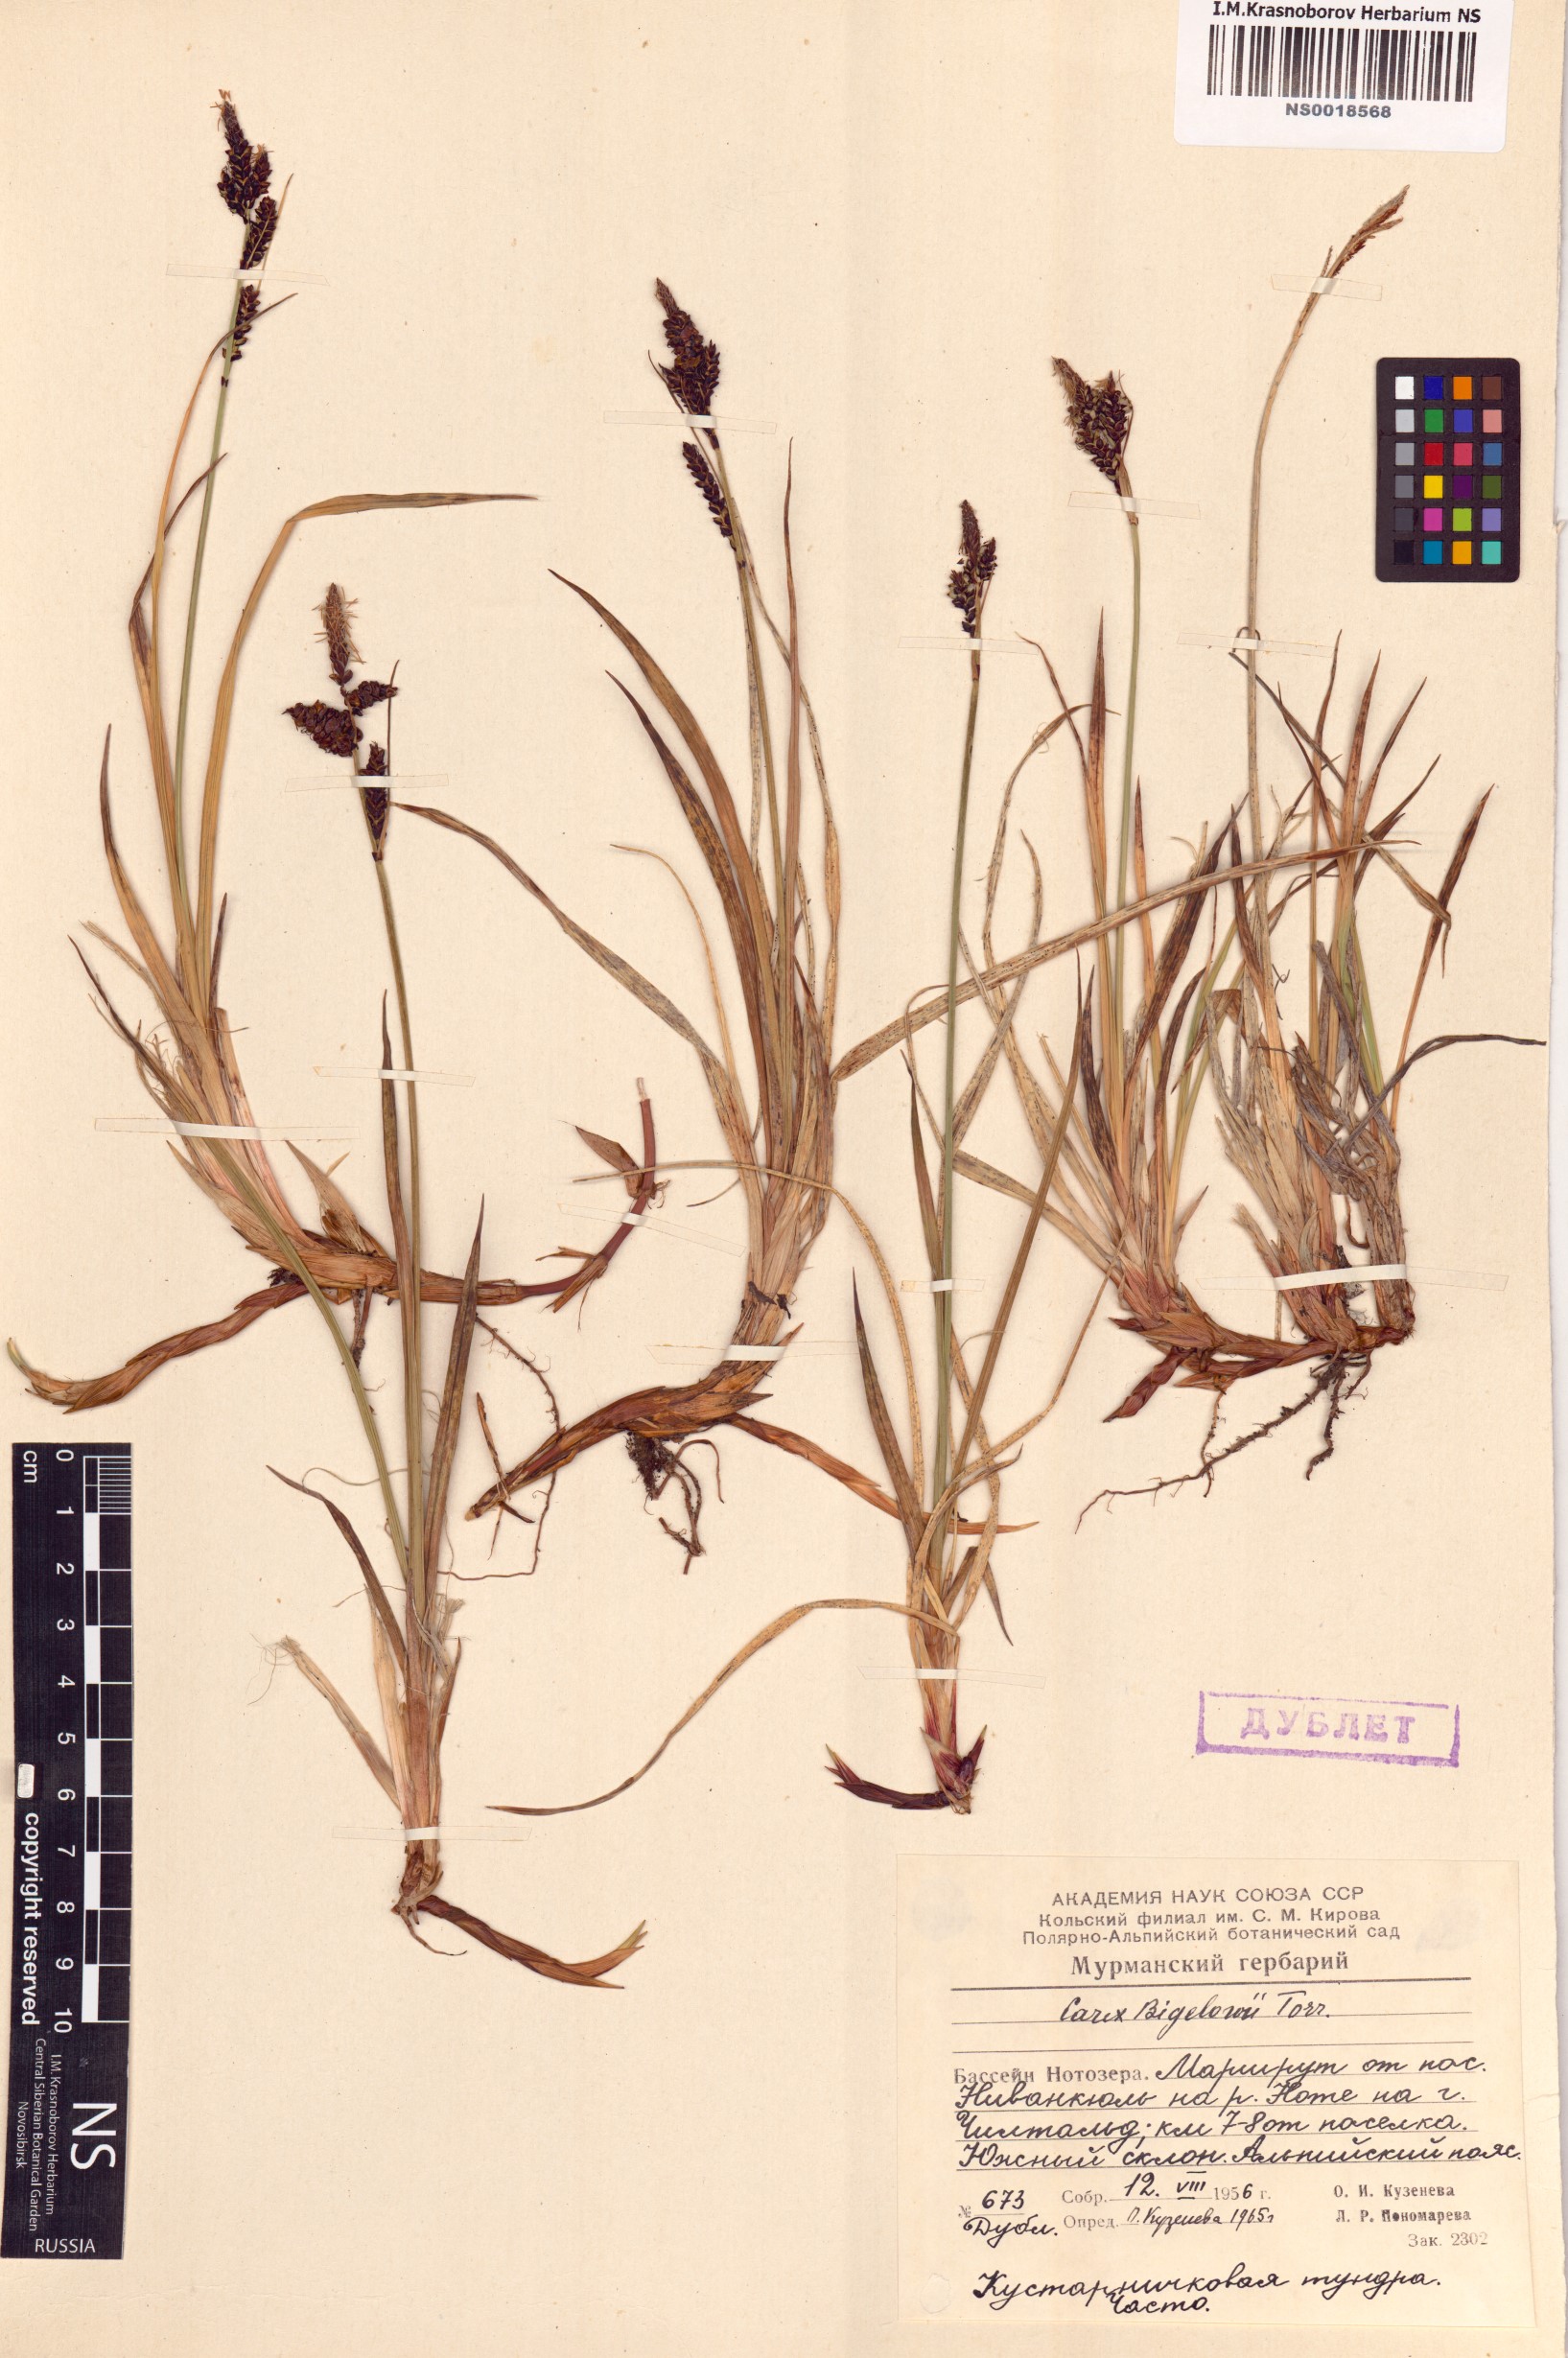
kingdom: Plantae
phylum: Tracheophyta
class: Liliopsida
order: Poales
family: Cyperaceae
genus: Carex
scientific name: Carex bigelowii
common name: Stiff sedge
